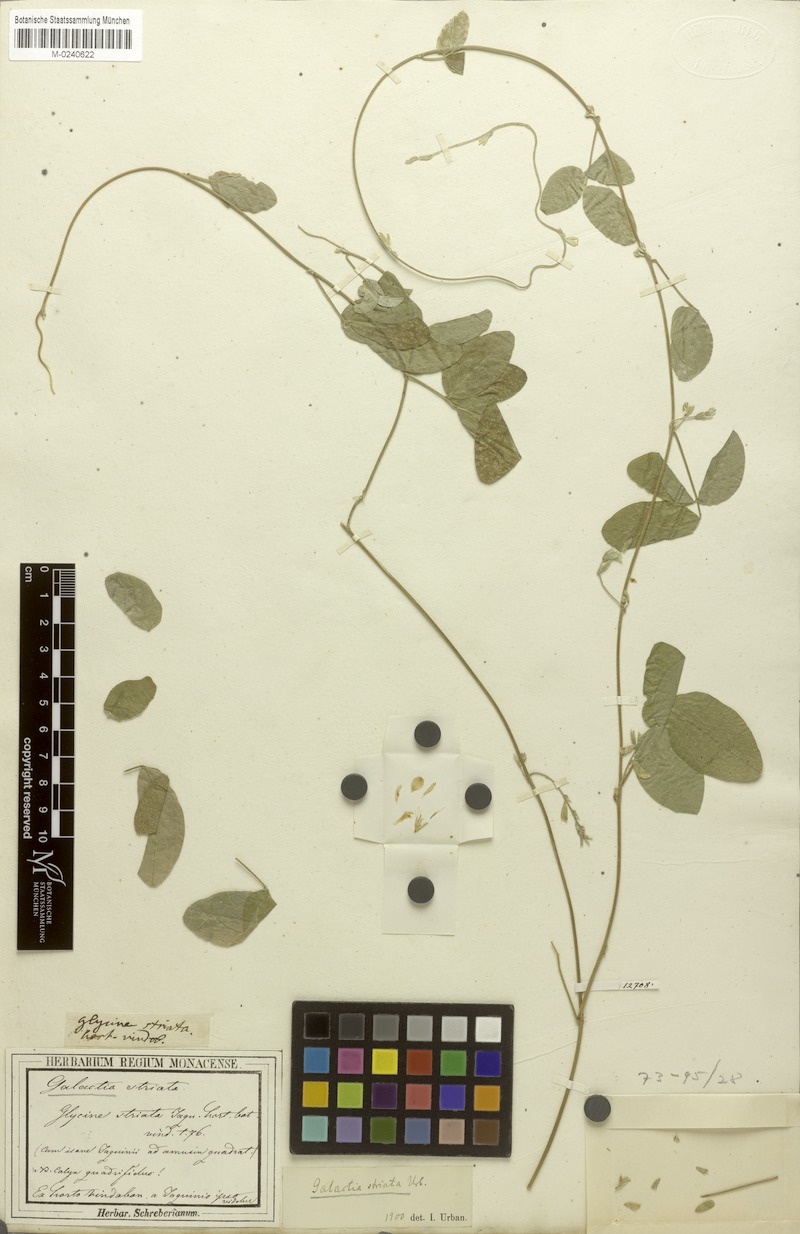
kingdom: Plantae
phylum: Tracheophyta
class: Magnoliopsida
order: Fabales
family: Fabaceae
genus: Galactia
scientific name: Galactia striata
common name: Florida hammock milkpea
